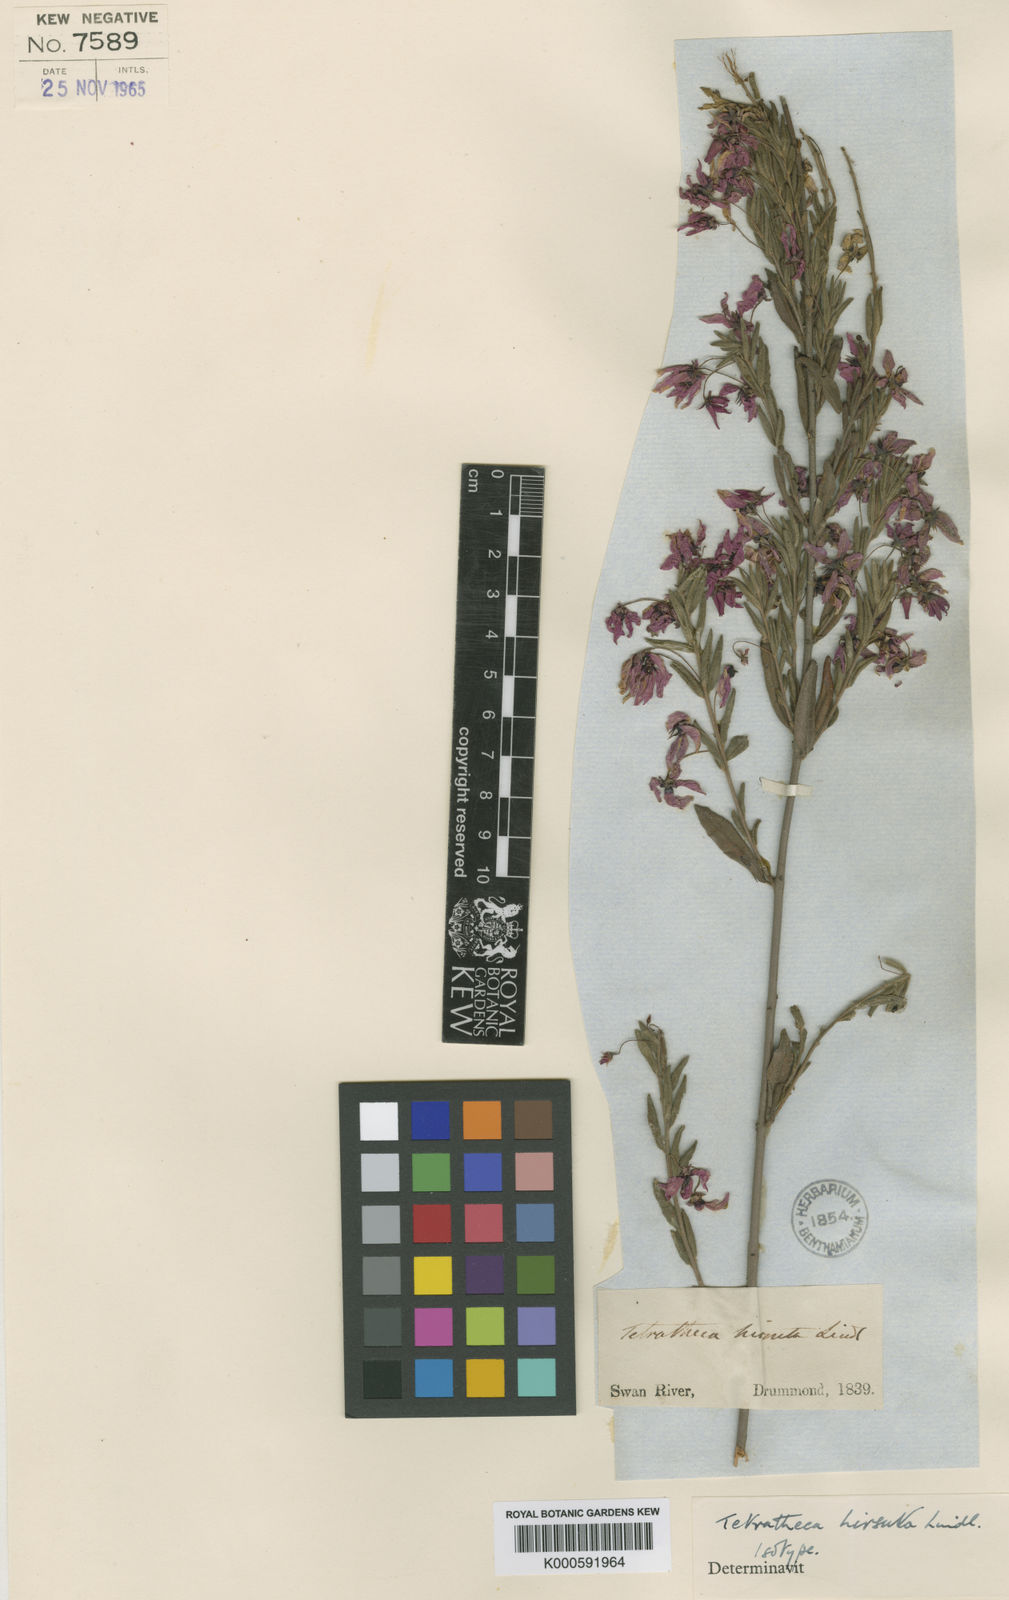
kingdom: Plantae
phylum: Tracheophyta
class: Magnoliopsida
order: Oxalidales
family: Elaeocarpaceae
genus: Tetratheca
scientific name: Tetratheca hirsuta
